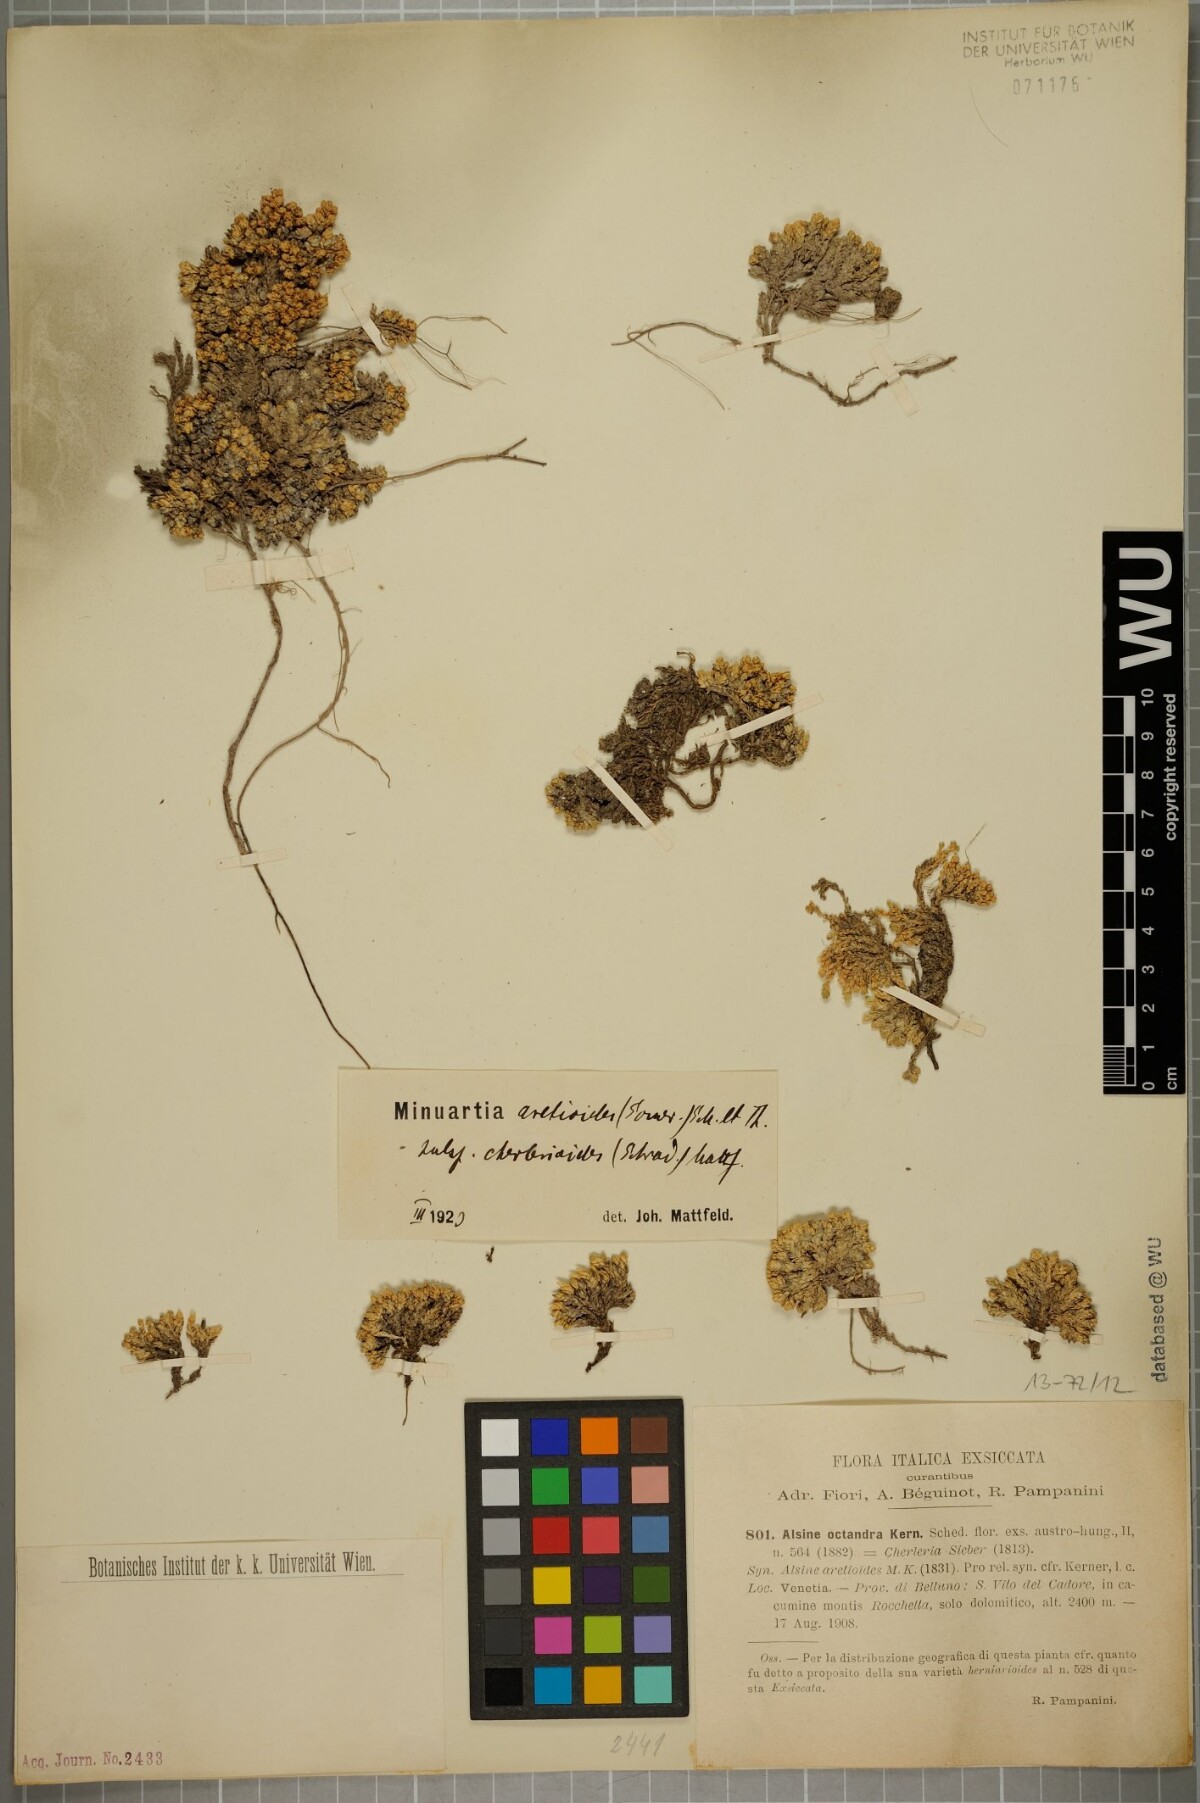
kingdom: Plantae
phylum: Tracheophyta
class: Magnoliopsida
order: Caryophyllales
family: Caryophyllaceae
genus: Facchinia
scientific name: Facchinia cherlerioides
